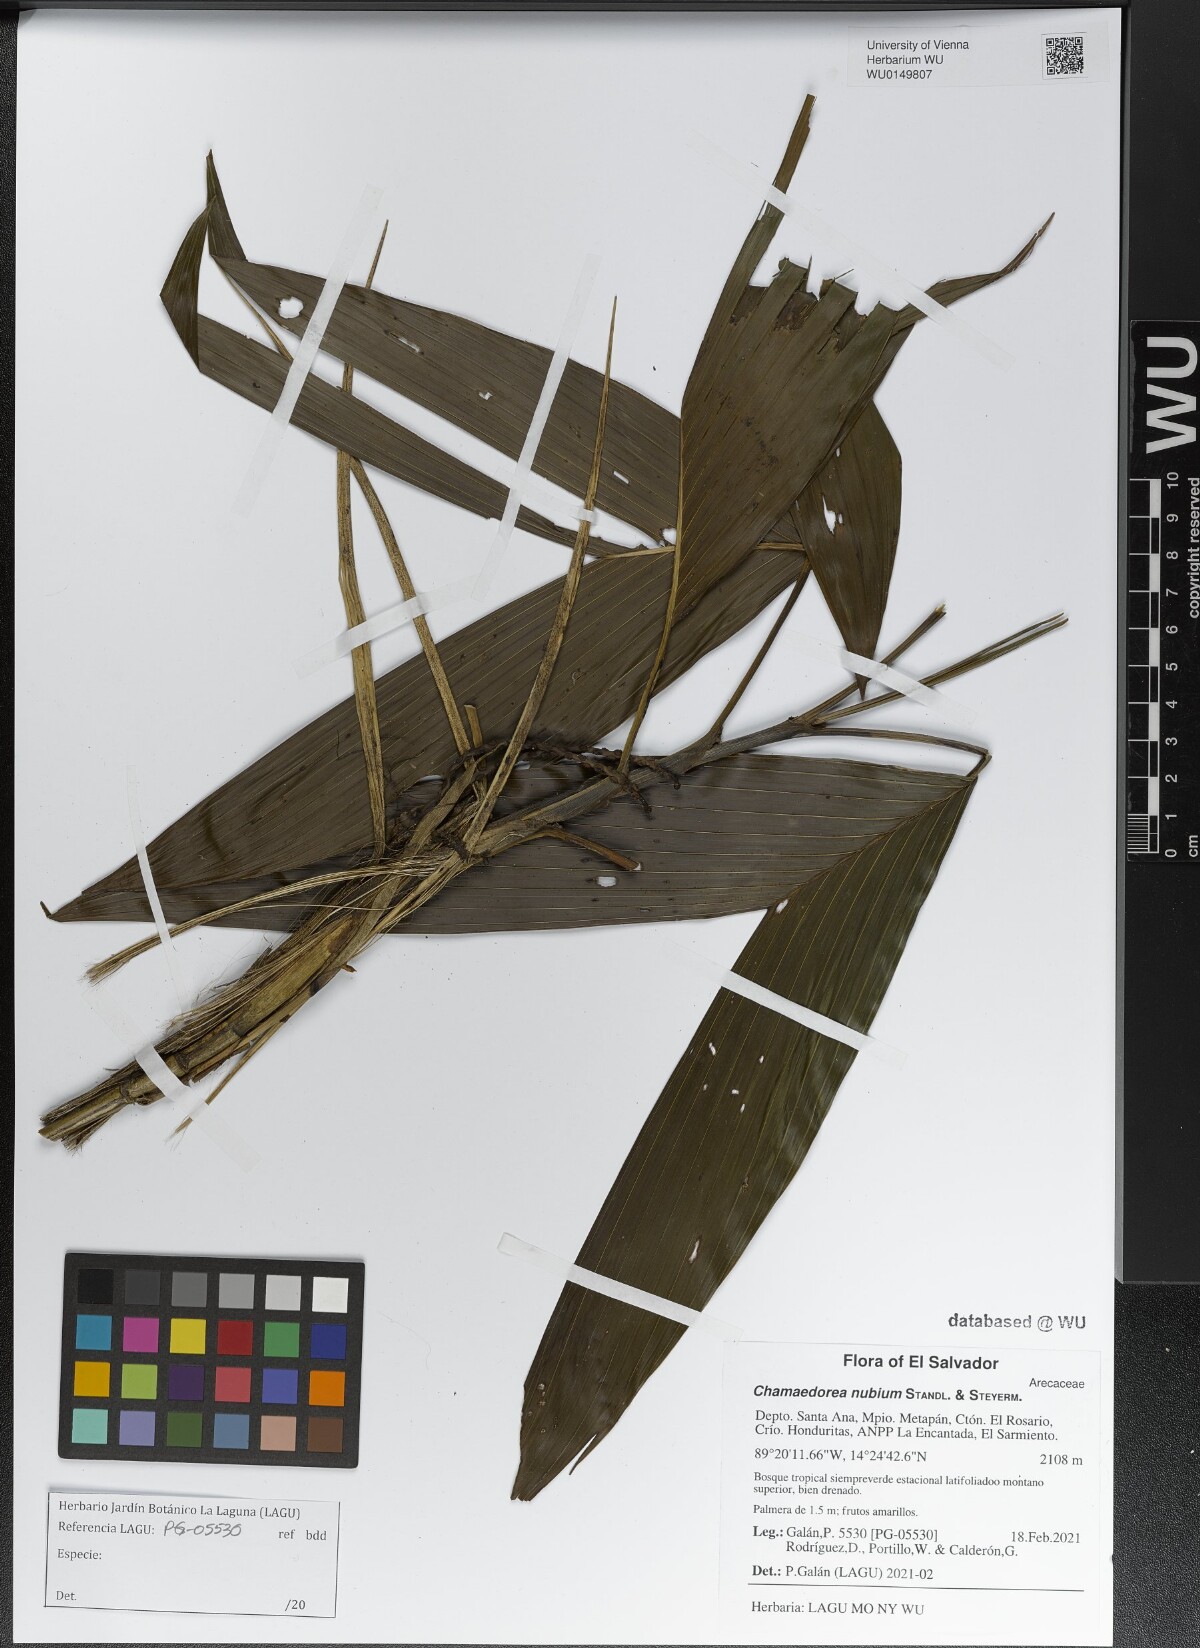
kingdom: Plantae
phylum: Tracheophyta
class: Liliopsida
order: Arecales
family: Arecaceae
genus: Chamaedorea
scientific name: Chamaedorea nubium
